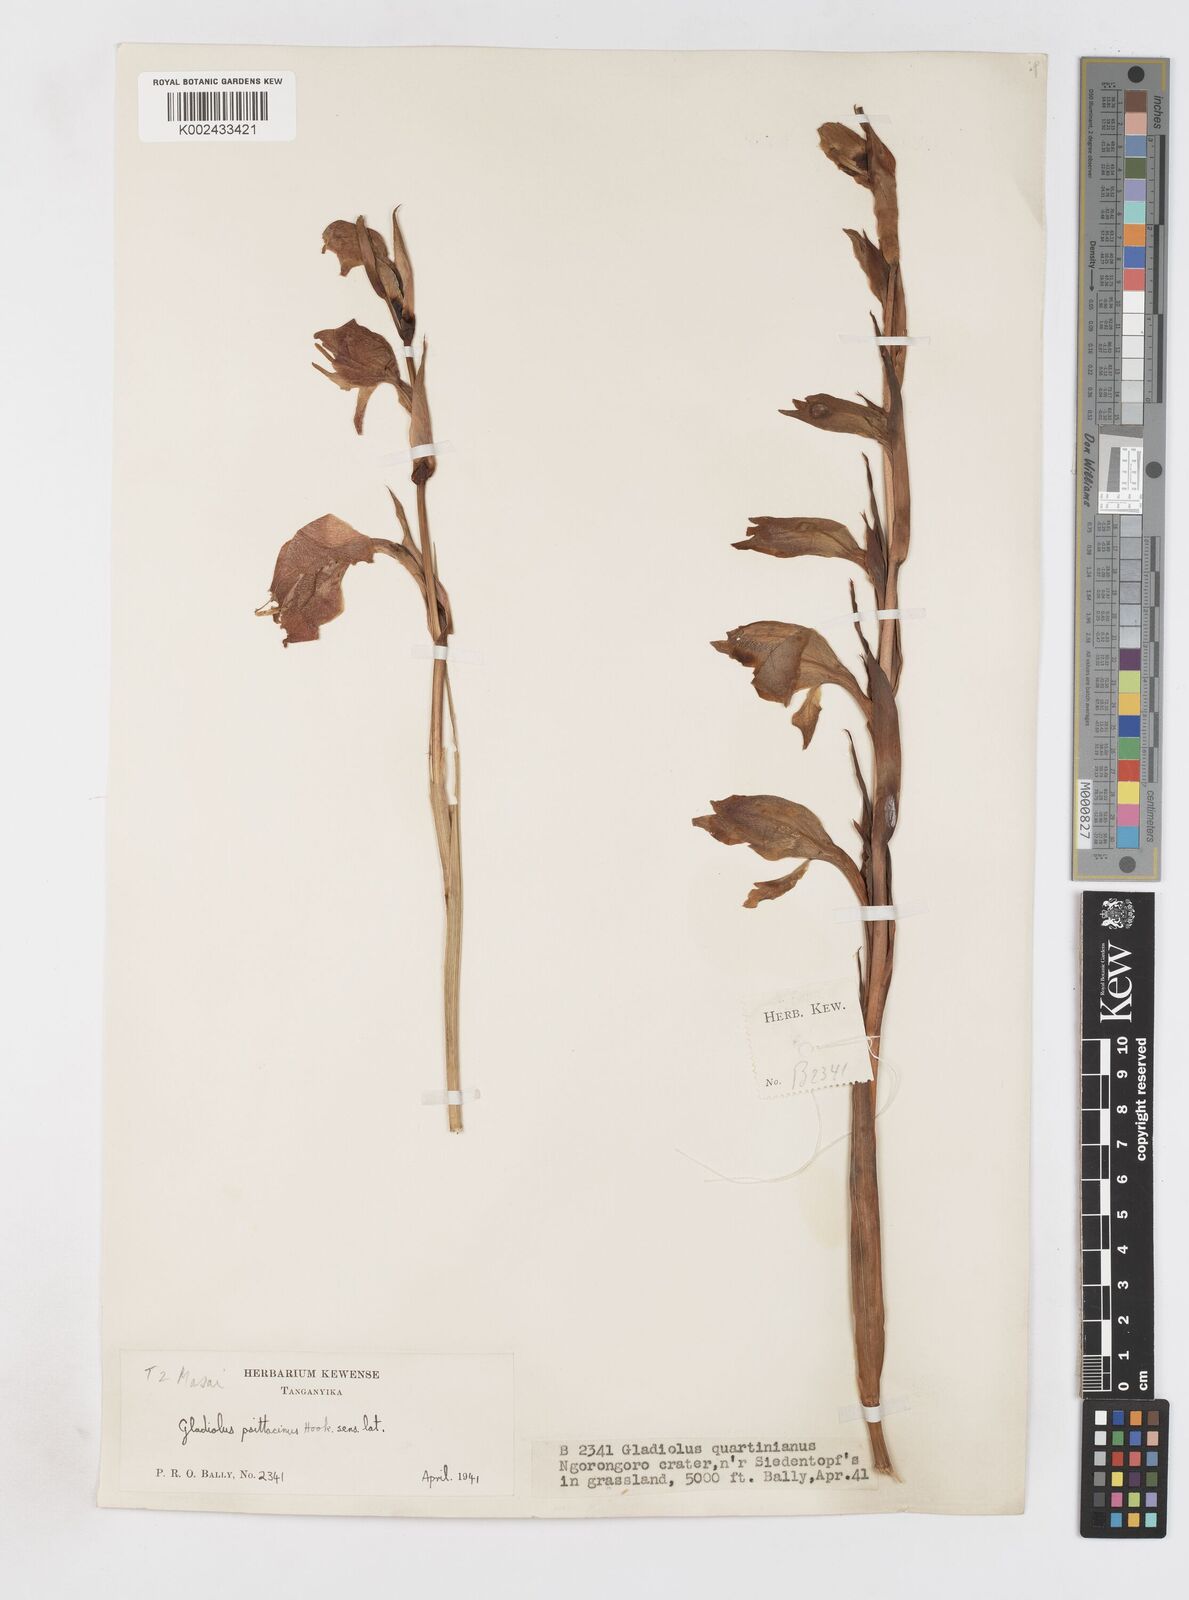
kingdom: Plantae
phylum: Tracheophyta
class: Liliopsida
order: Asparagales
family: Iridaceae
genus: Gladiolus
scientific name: Gladiolus dalenii
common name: Cornflag
